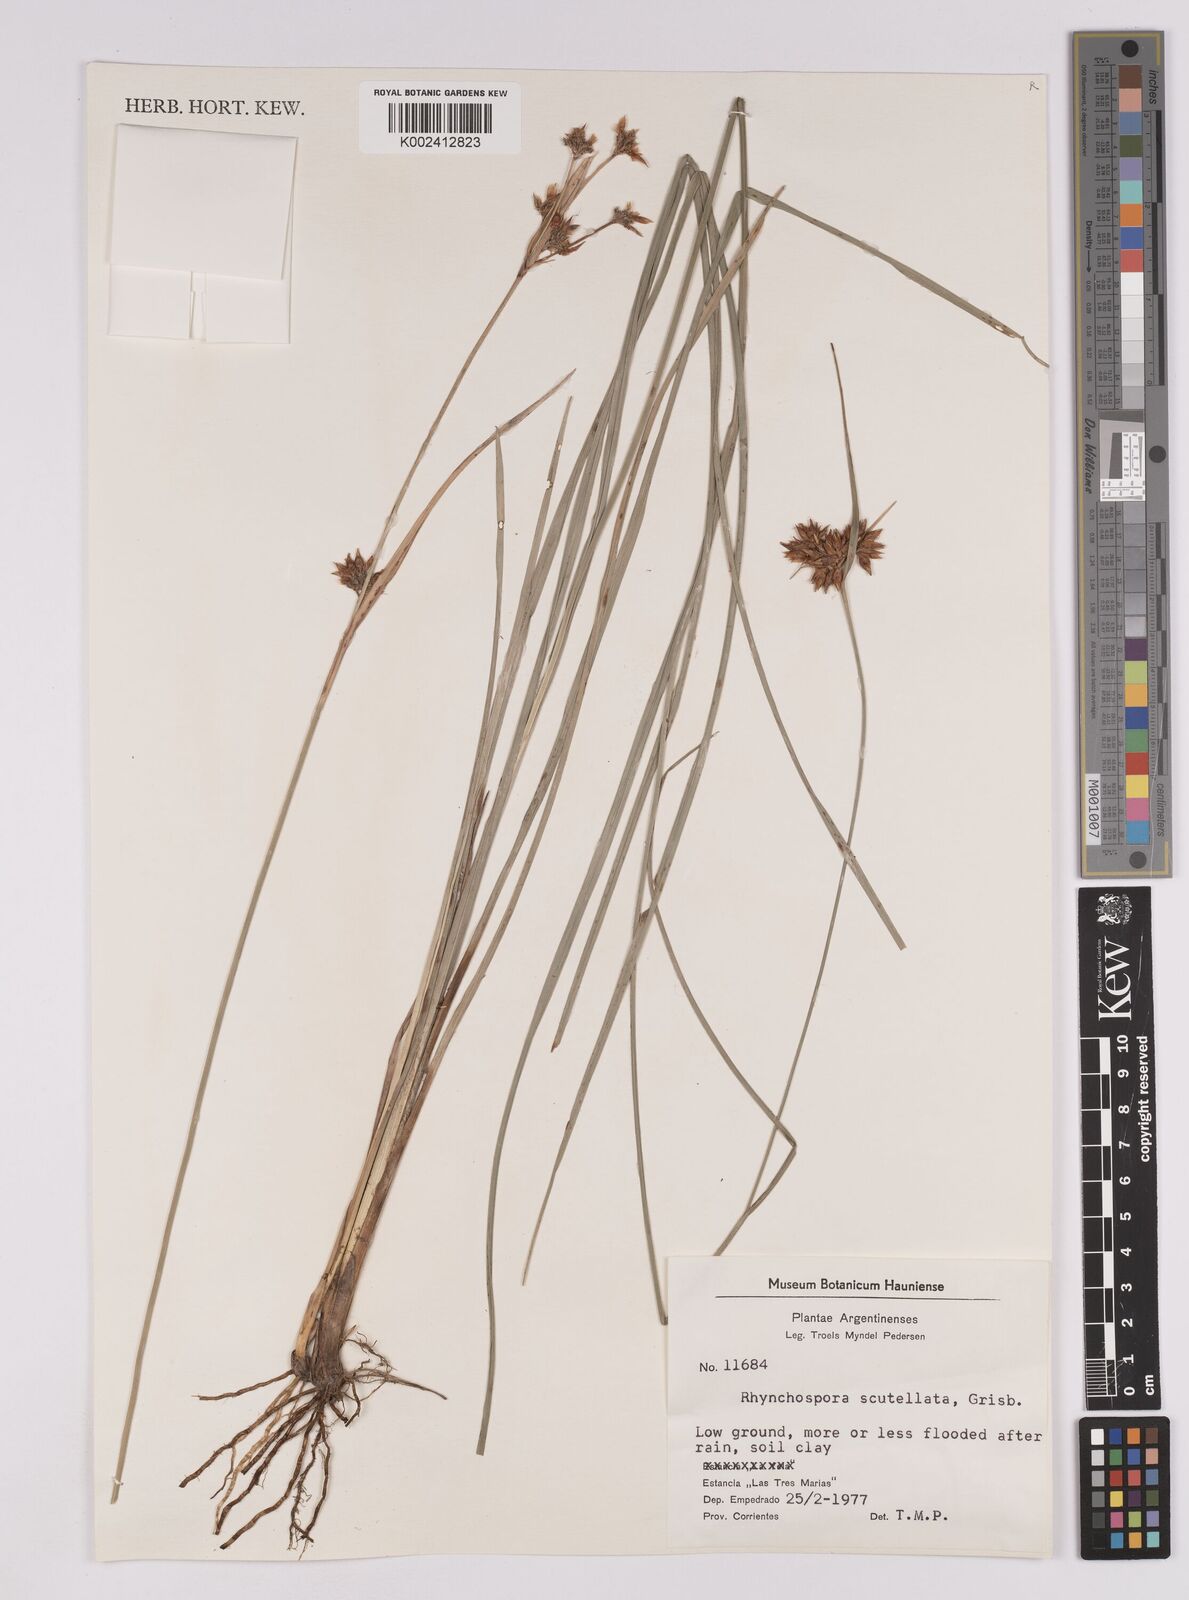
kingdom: Plantae
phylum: Tracheophyta
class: Liliopsida
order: Poales
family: Cyperaceae
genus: Rhynchospora
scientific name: Rhynchospora scutellata
